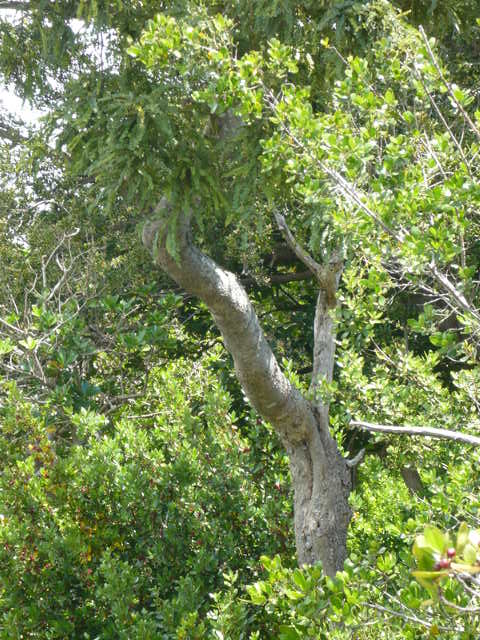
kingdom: Plantae
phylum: Tracheophyta
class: Magnoliopsida
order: Fabales
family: Fabaceae
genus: Sophora
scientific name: Sophora chathamica
